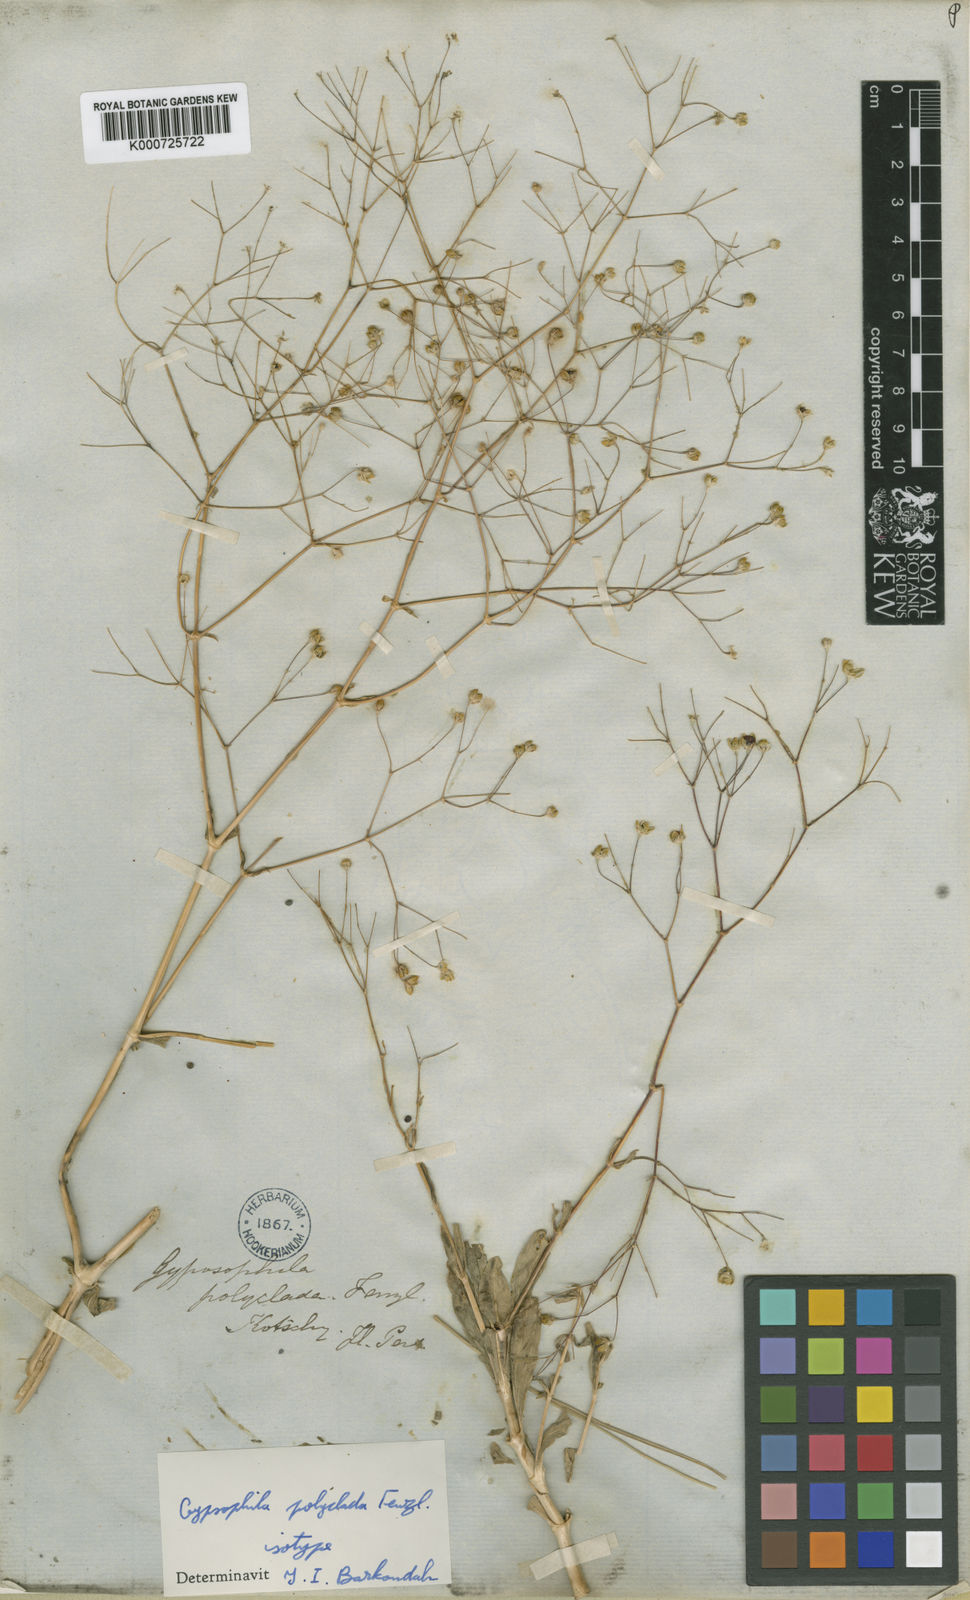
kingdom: Plantae
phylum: Tracheophyta
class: Magnoliopsida
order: Caryophyllales
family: Caryophyllaceae
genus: Gypsophila
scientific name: Gypsophila polyclada
